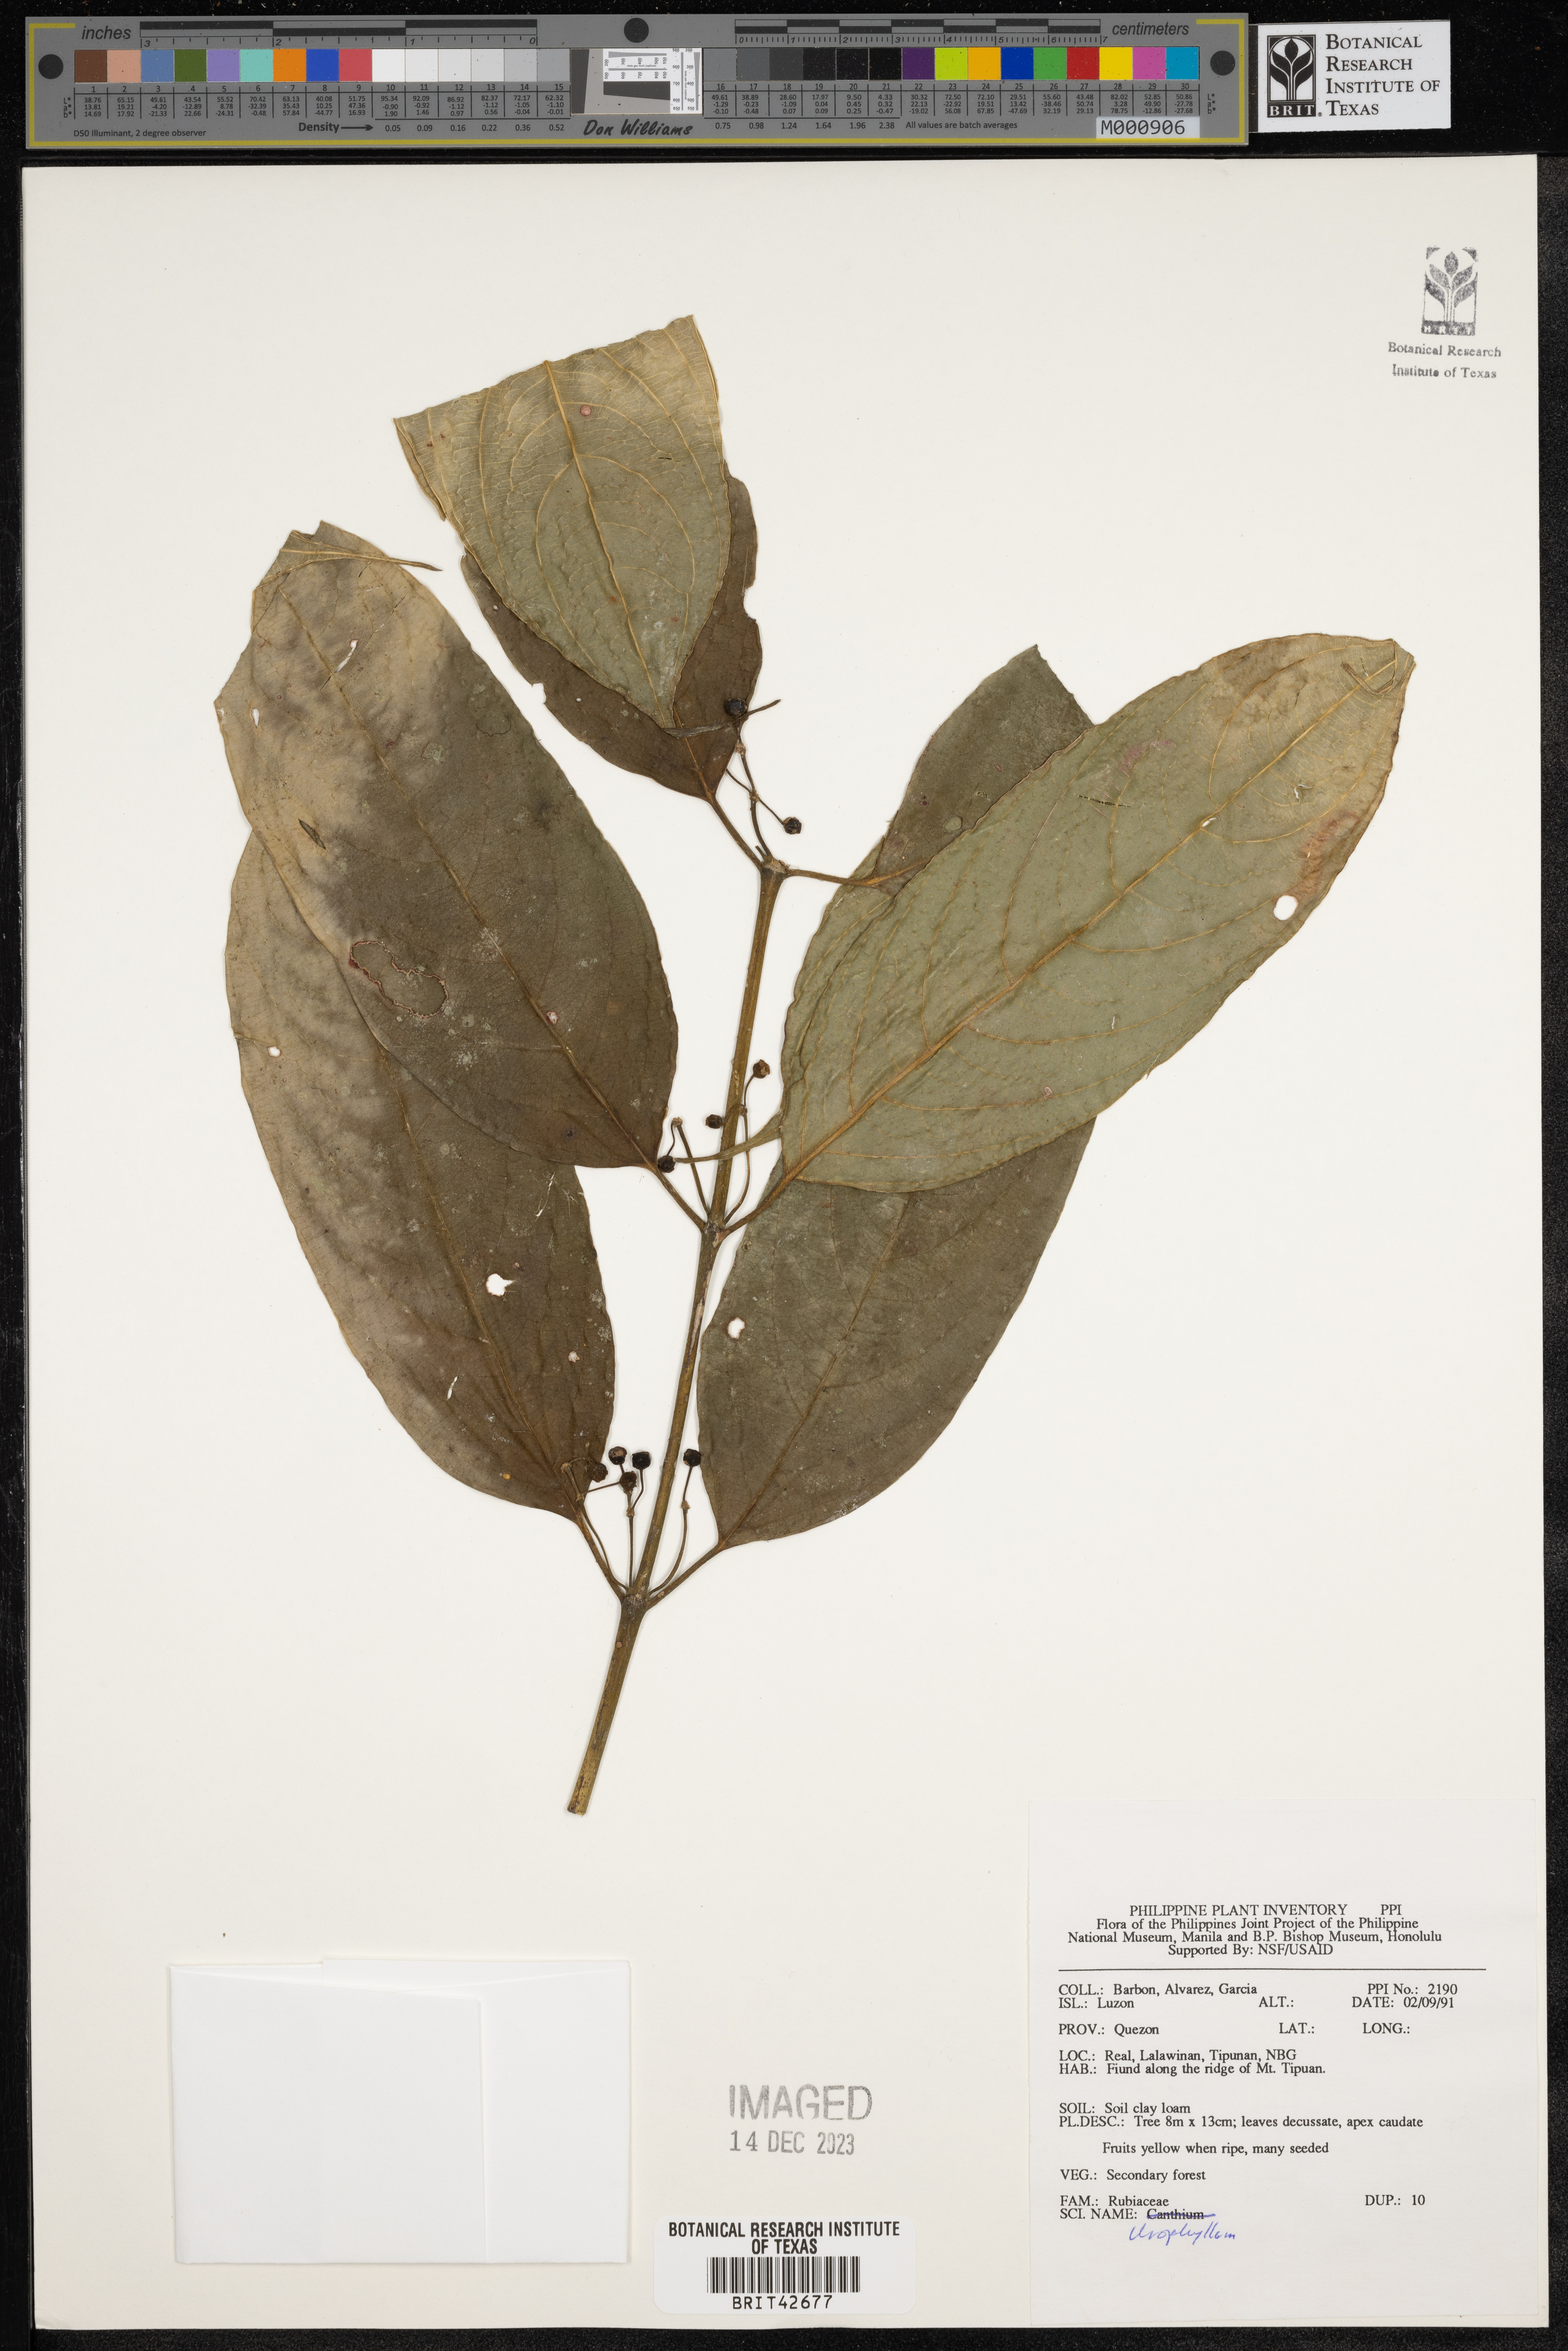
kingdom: Plantae
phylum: Tracheophyta
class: Magnoliopsida
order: Gentianales
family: Rubiaceae
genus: Urophyllum
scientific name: Urophyllum
